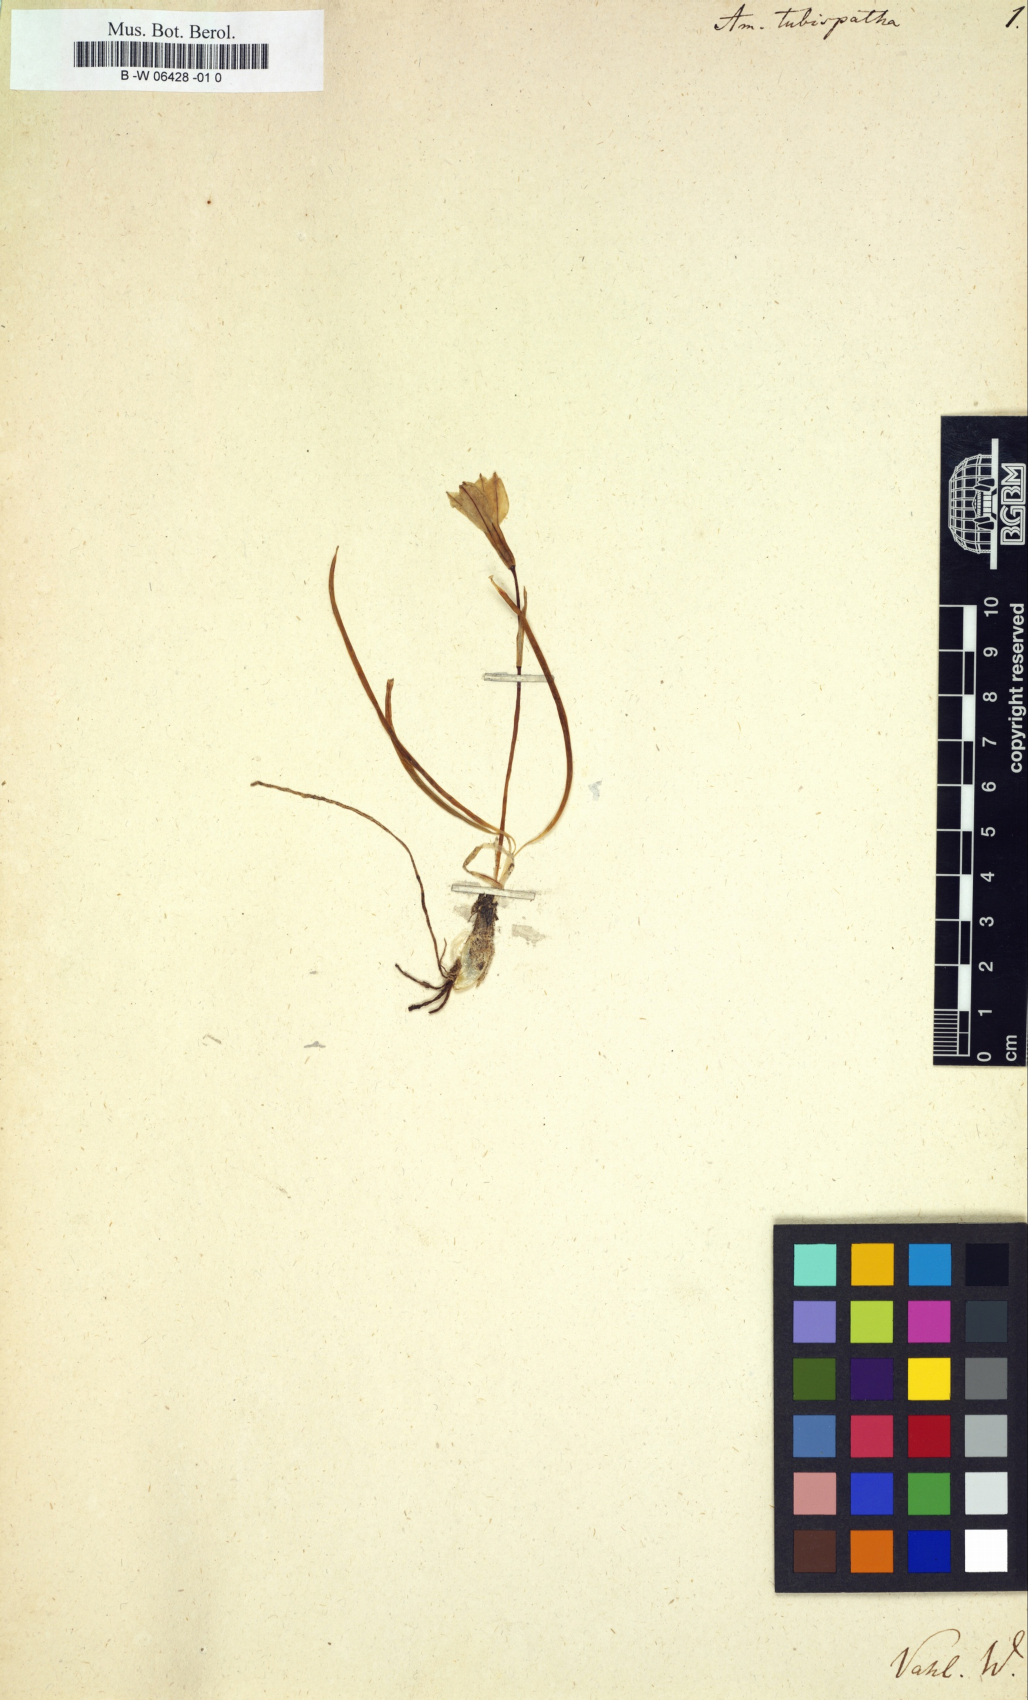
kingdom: Plantae
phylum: Tracheophyta
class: Liliopsida
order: Asparagales
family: Amaryllidaceae
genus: Zephyranthes
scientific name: Zephyranthes tubispatha
